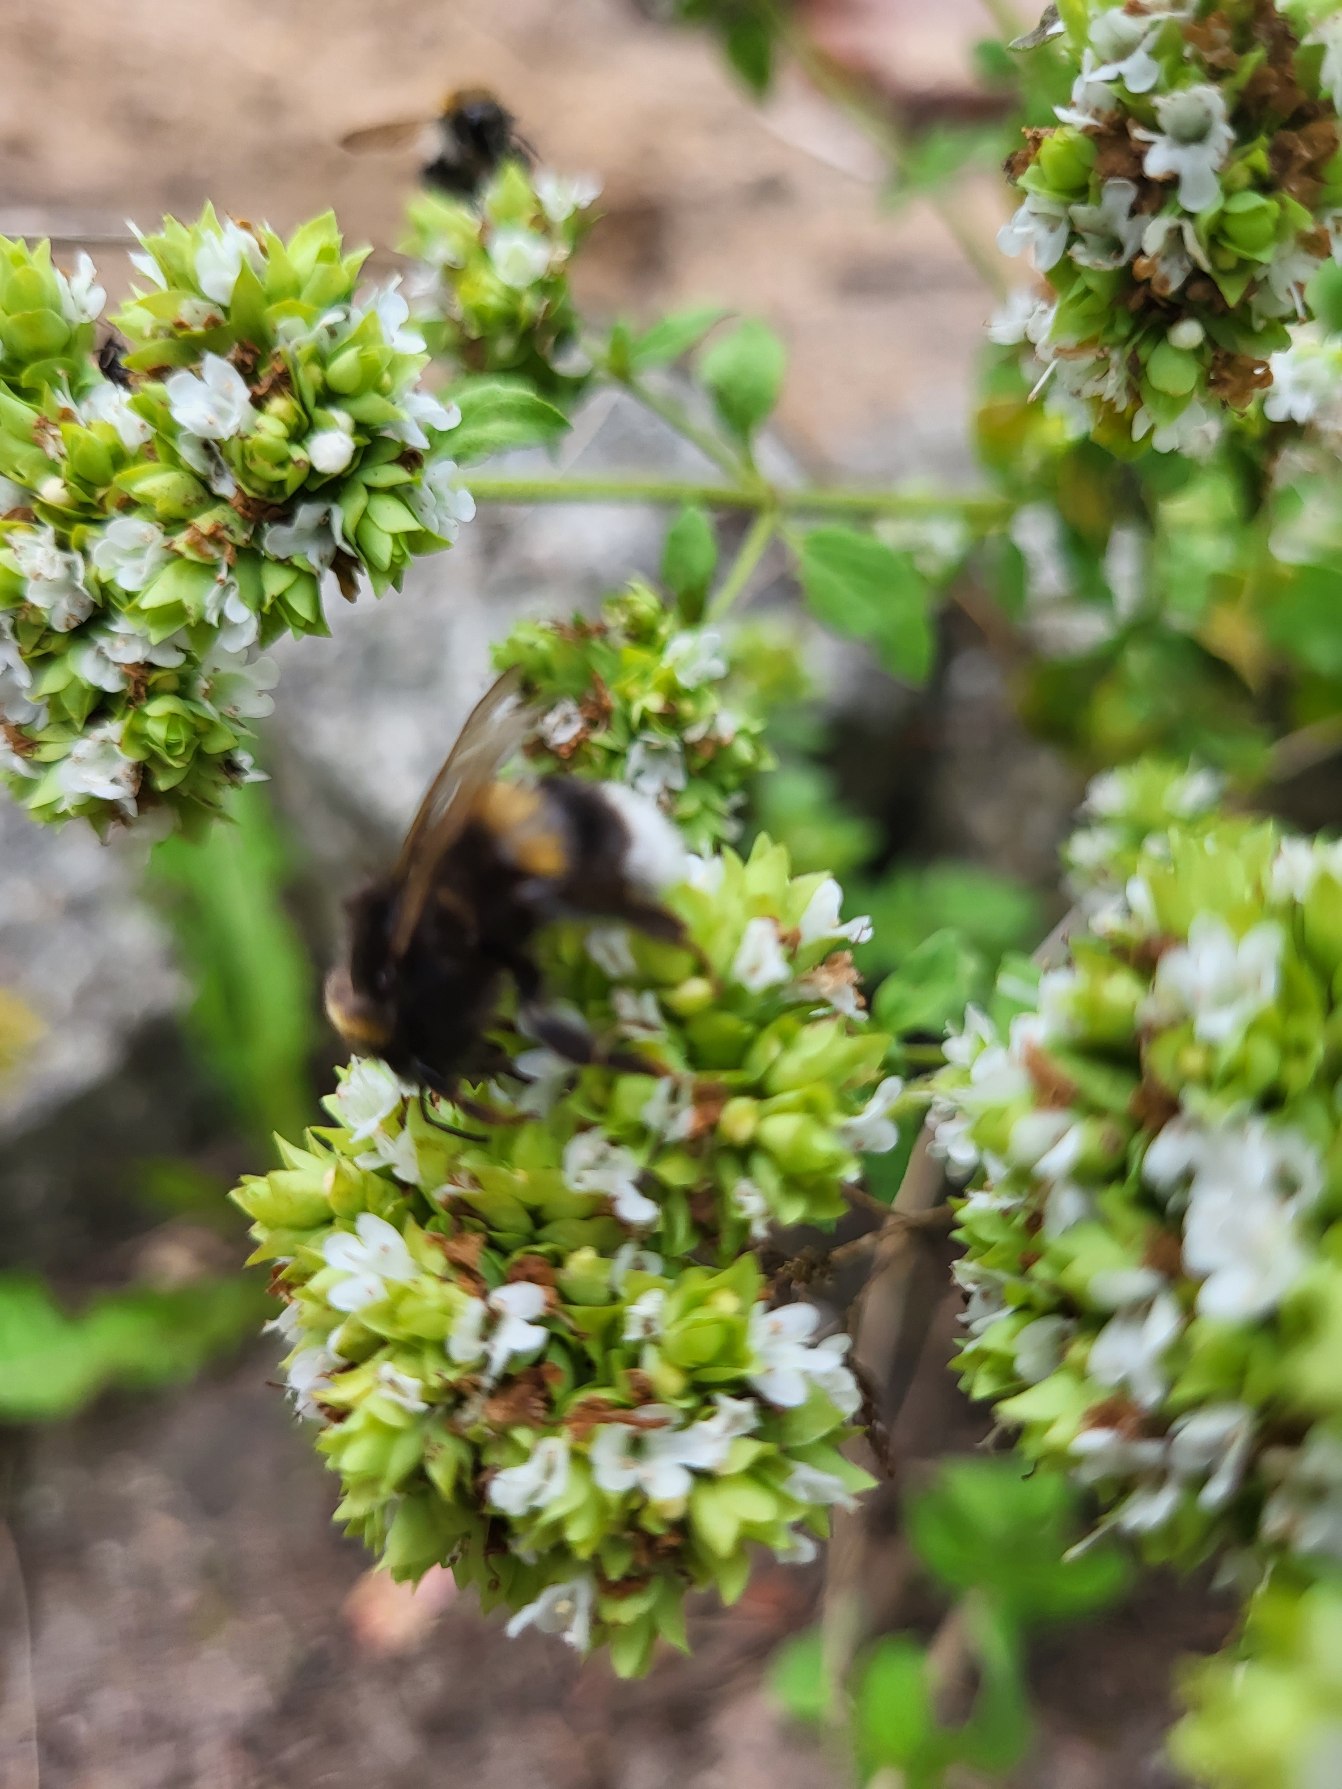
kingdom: Plantae
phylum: Tracheophyta
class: Magnoliopsida
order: Lamiales
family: Lamiaceae
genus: Origanum
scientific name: Origanum majorana
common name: Have-merian
